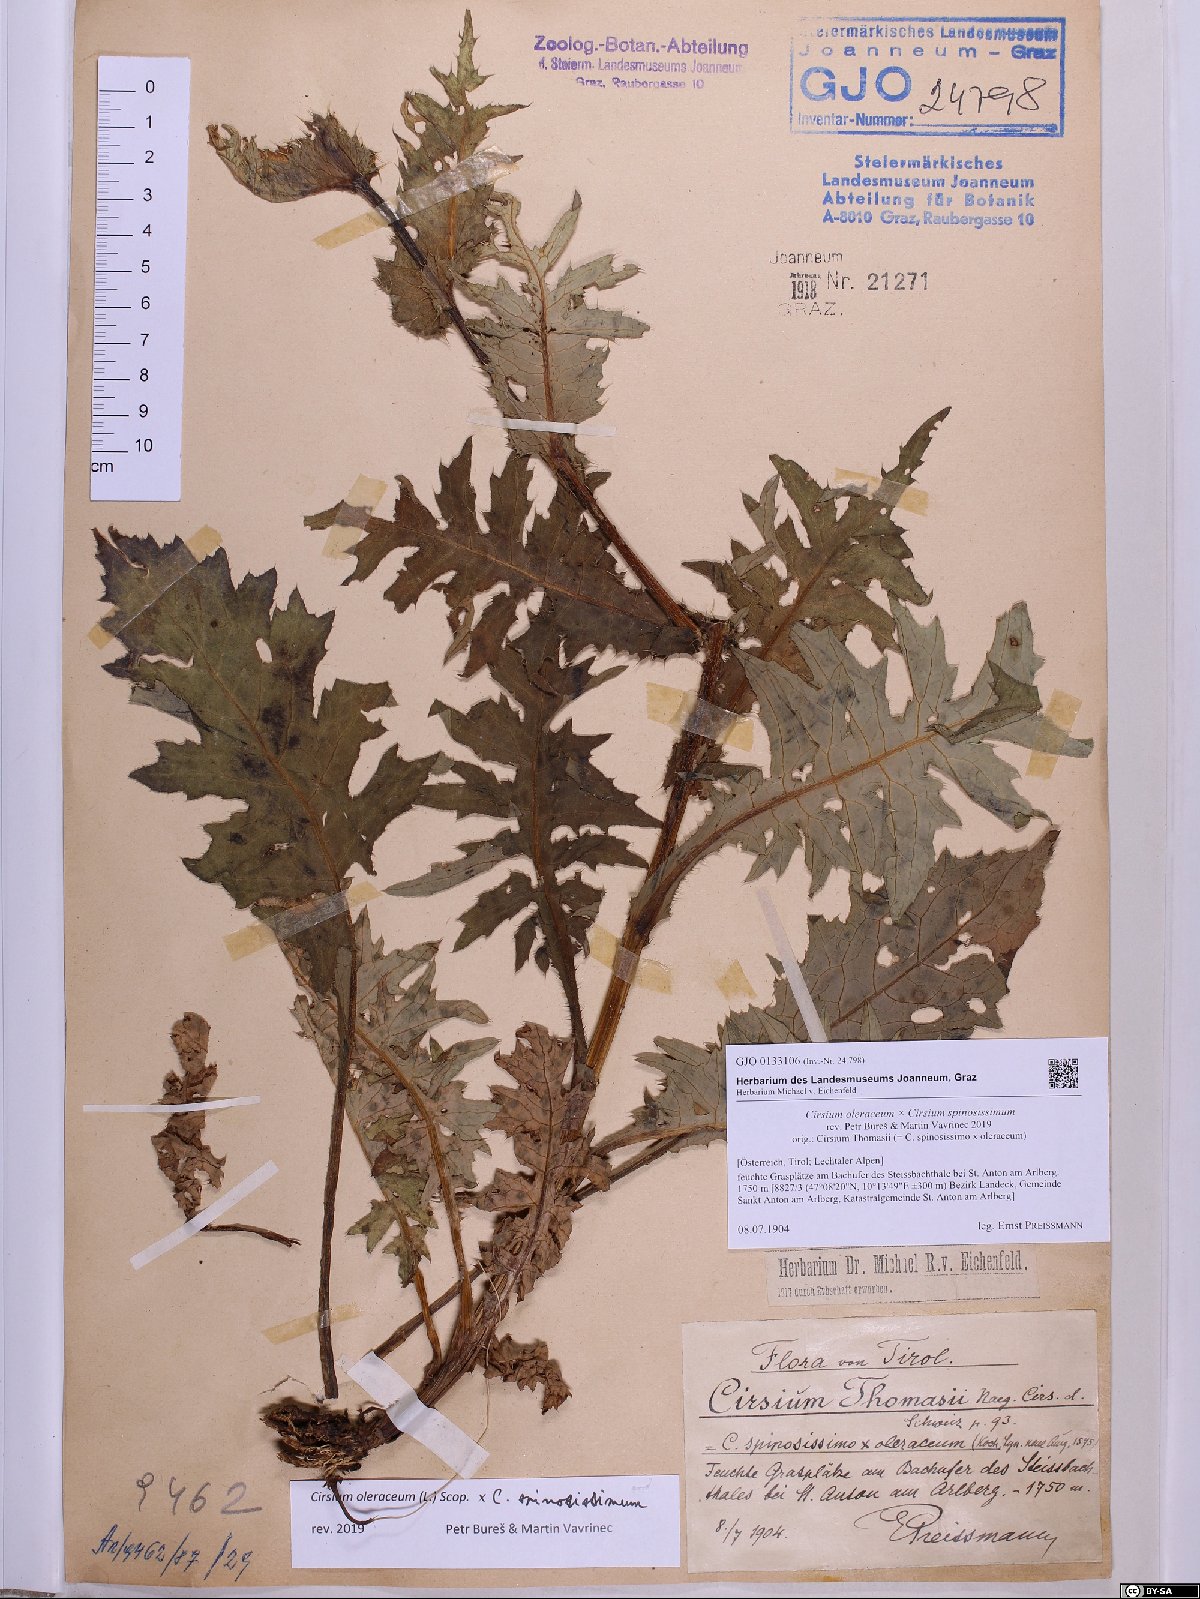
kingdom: Plantae
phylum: Tracheophyta
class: Magnoliopsida
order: Asterales
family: Asteraceae
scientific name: Asteraceae
